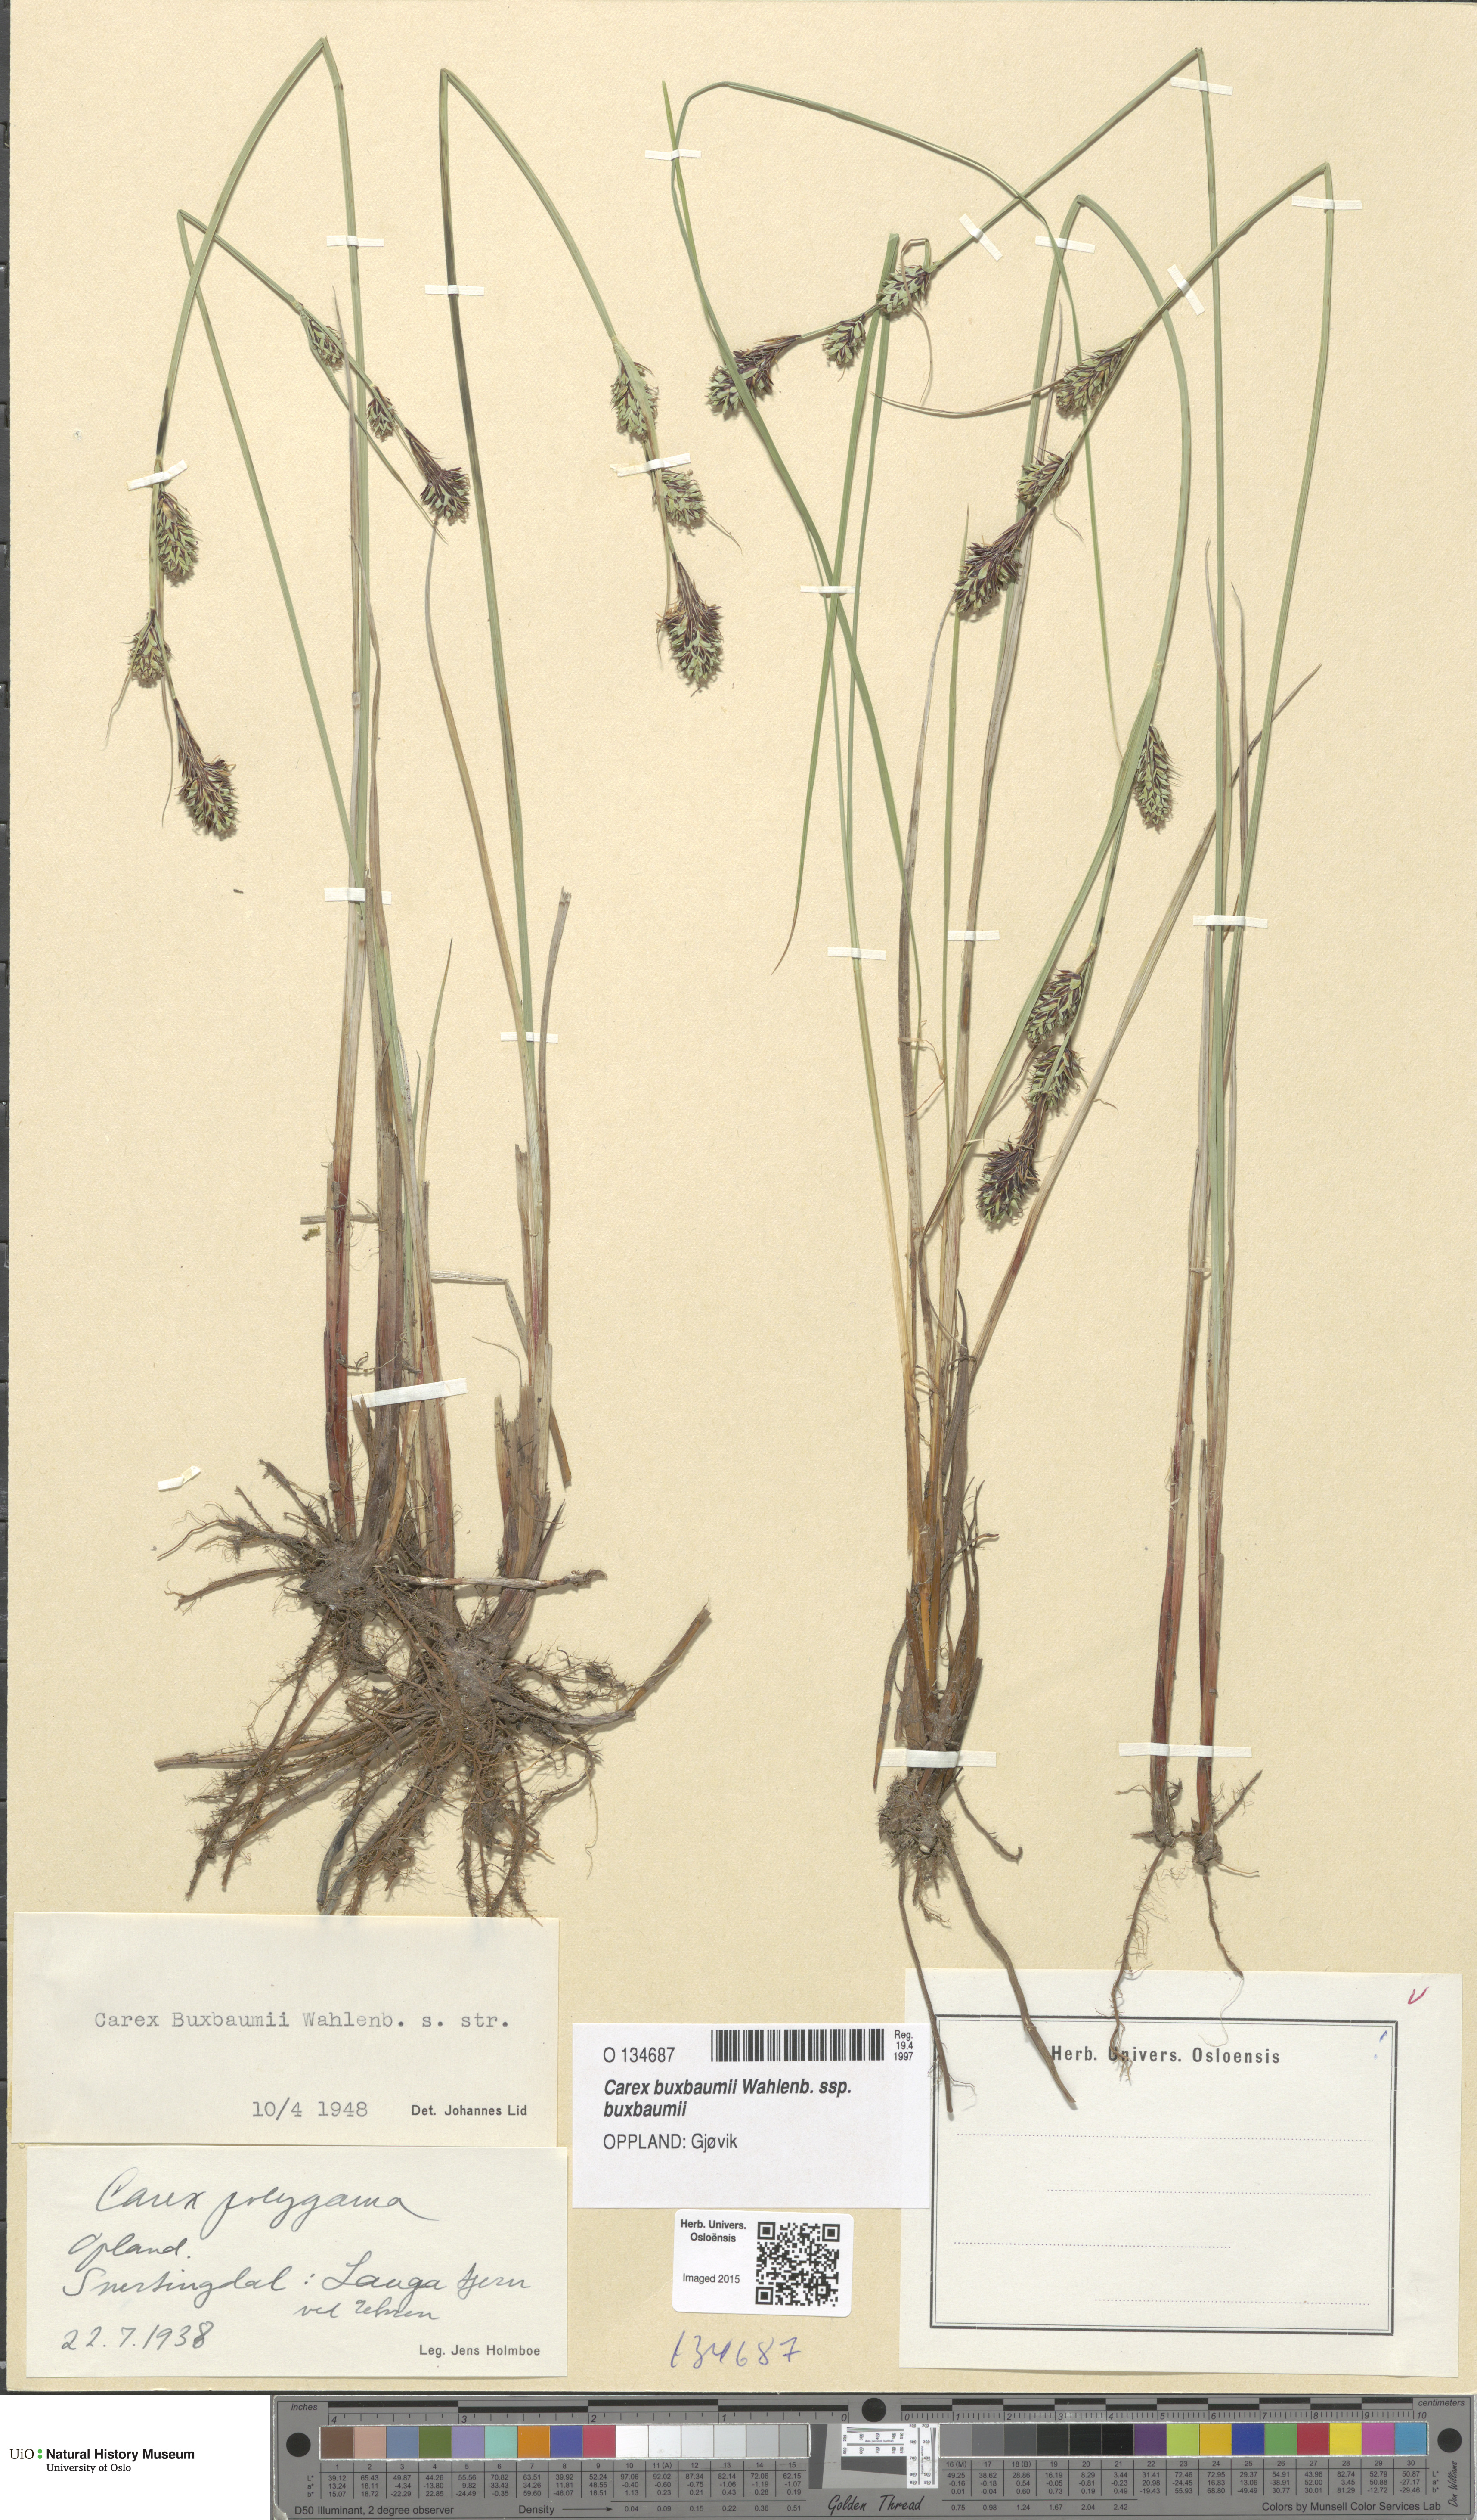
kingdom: Plantae
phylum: Tracheophyta
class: Liliopsida
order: Poales
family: Cyperaceae
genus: Carex
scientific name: Carex buxbaumii
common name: Club sedge
